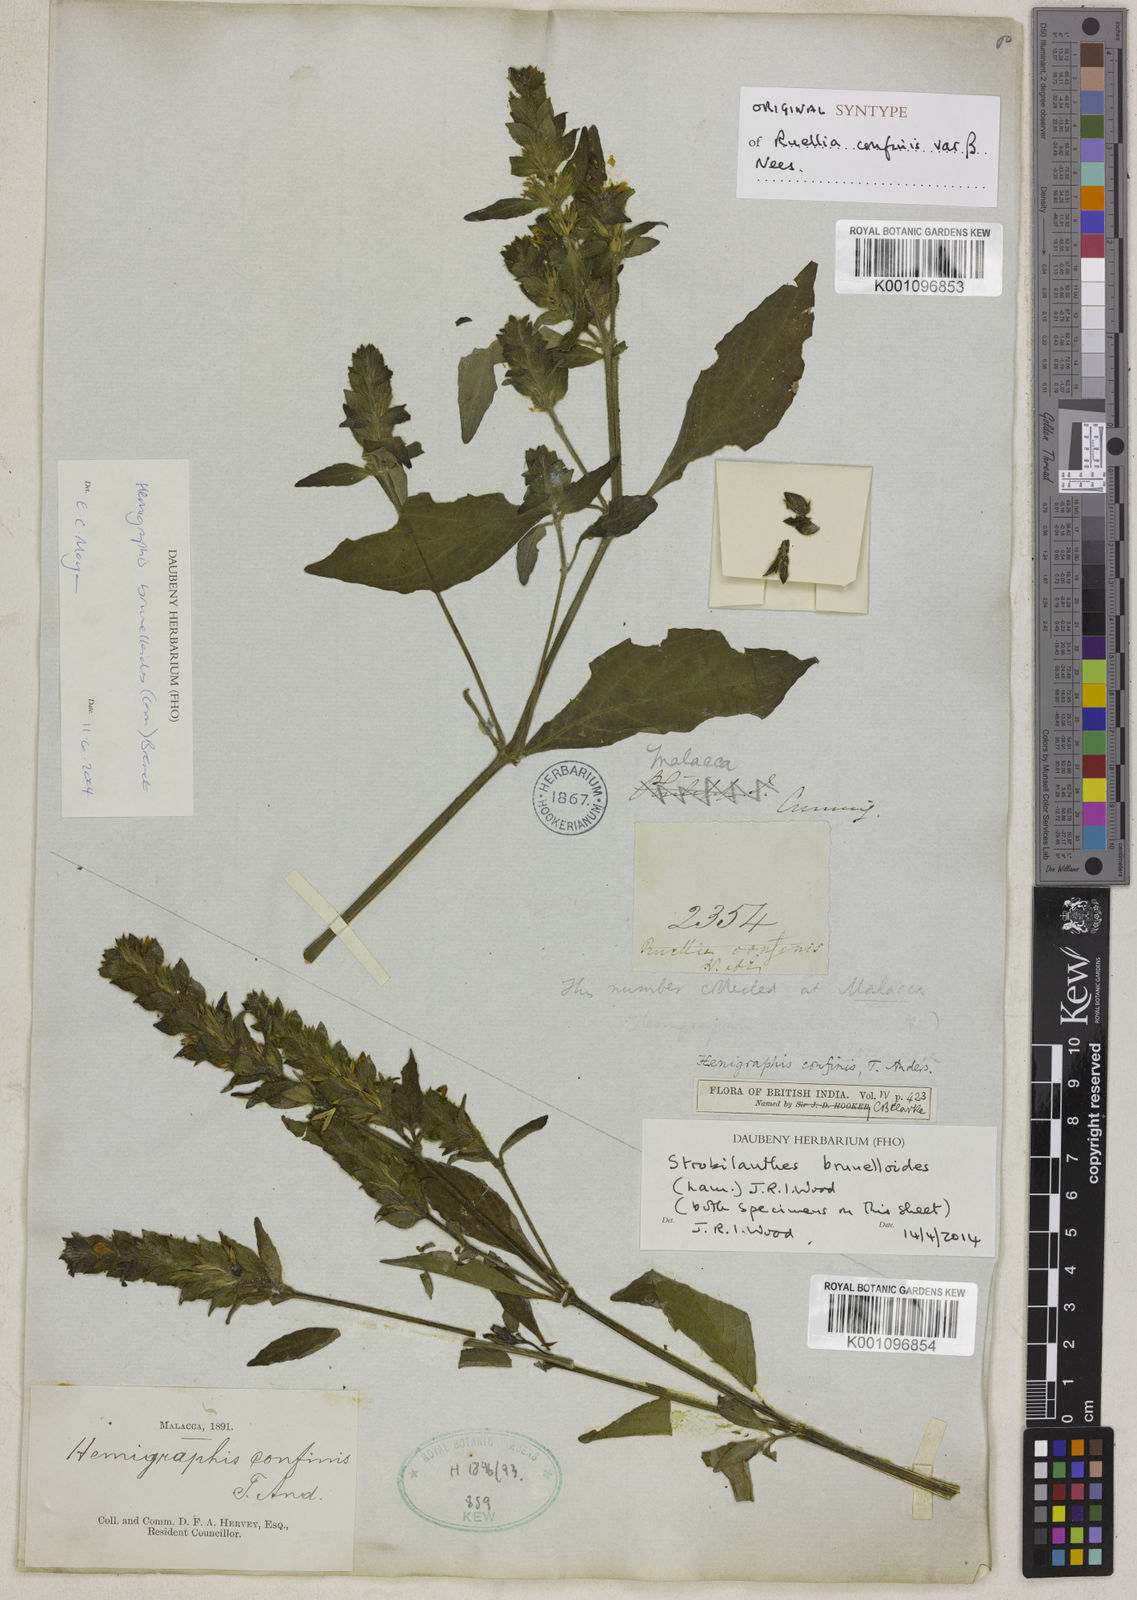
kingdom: Plantae
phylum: Tracheophyta
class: Magnoliopsida
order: Lamiales
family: Acanthaceae
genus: Strobilanthes
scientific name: Strobilanthes brunelloides
